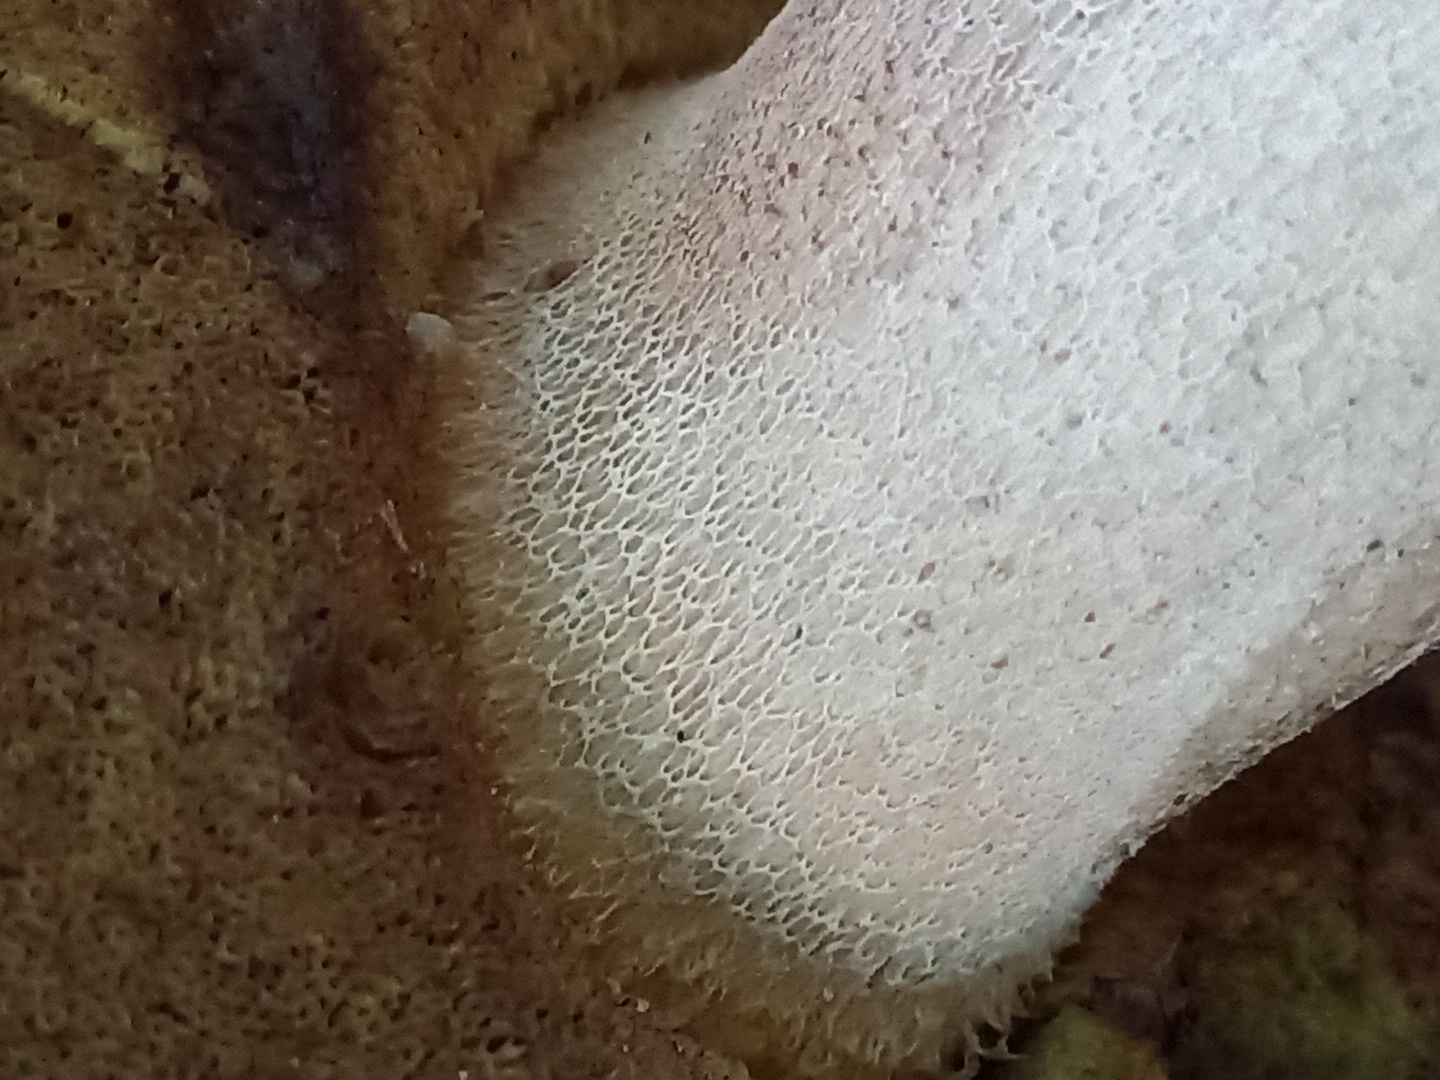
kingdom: Fungi
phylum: Basidiomycota
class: Agaricomycetes
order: Boletales
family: Boletaceae
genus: Boletus
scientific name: Boletus edulis
